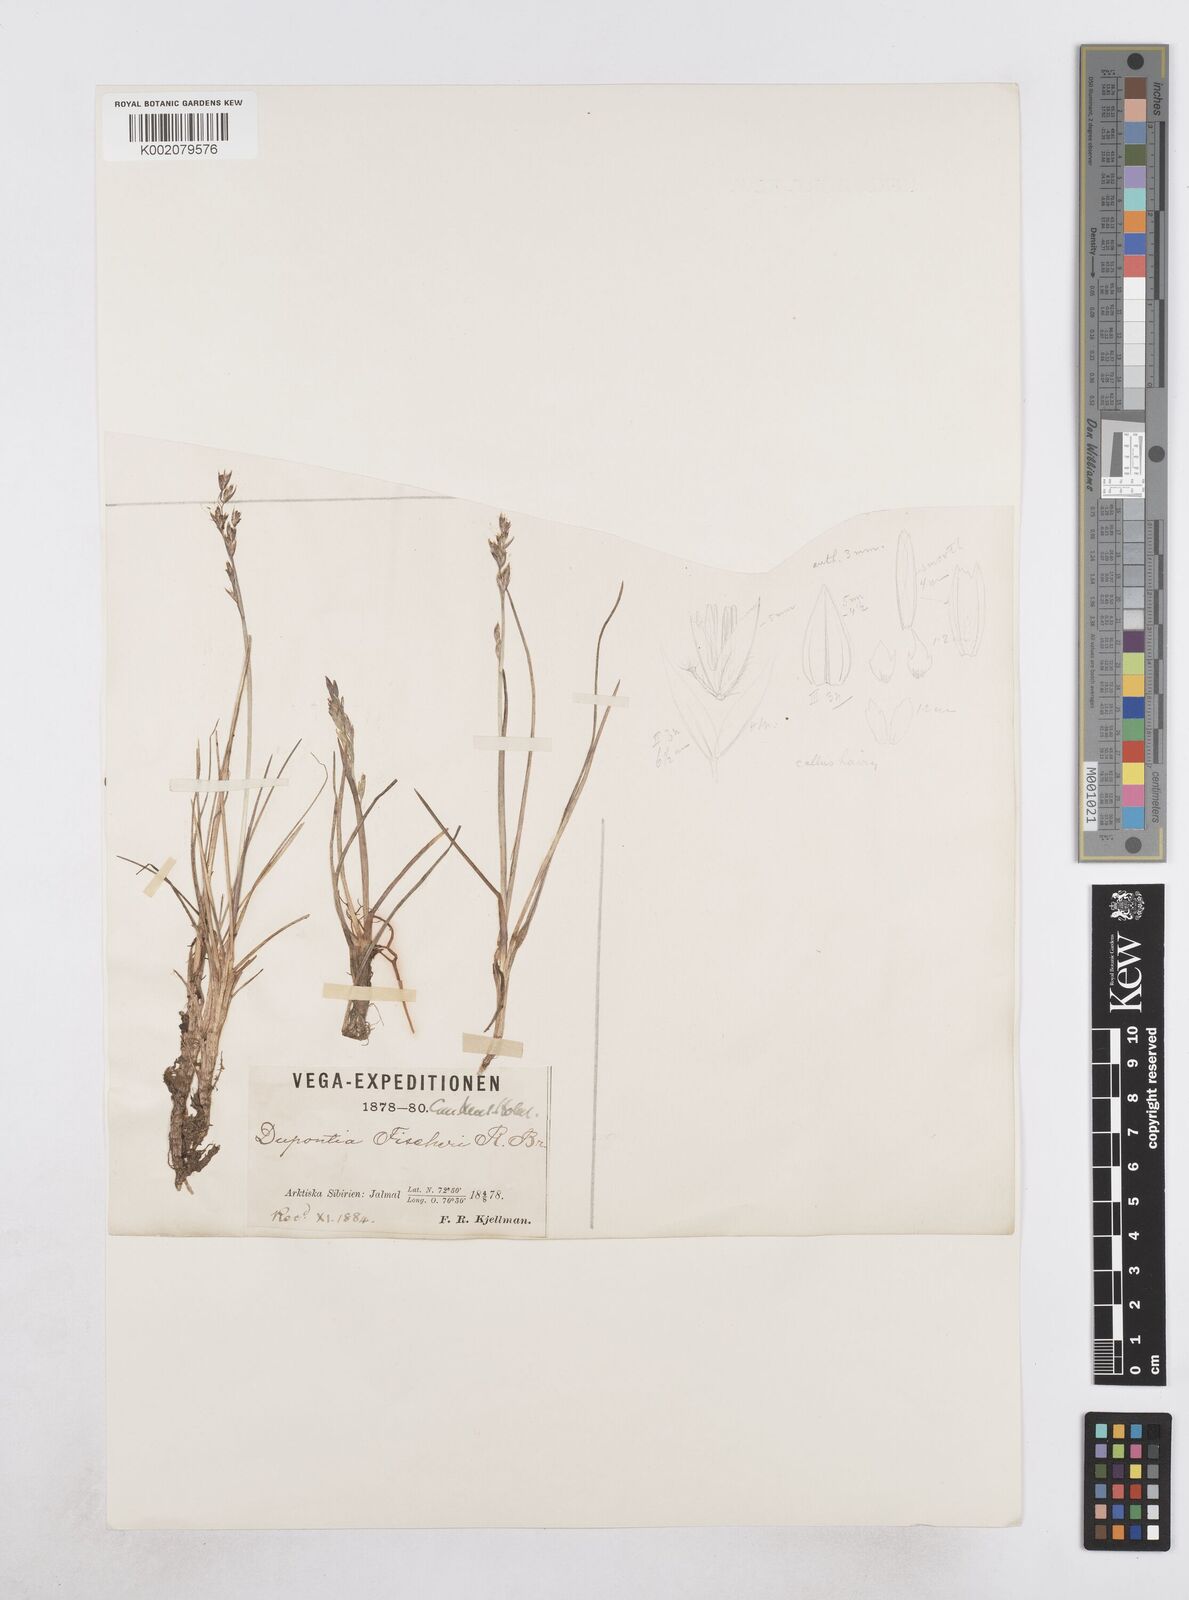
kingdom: Plantae
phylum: Tracheophyta
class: Liliopsida
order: Poales
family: Poaceae
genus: Dupontia
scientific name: Dupontia fisheri
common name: Tundra grass
